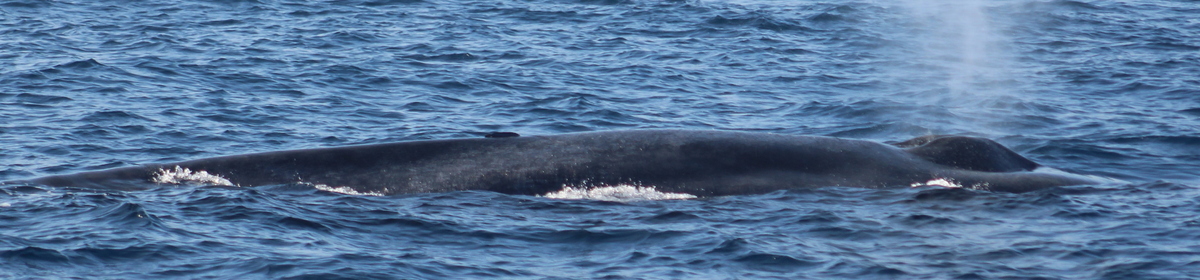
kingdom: Animalia
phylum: Chordata
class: Mammalia
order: Cetacea
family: Balaenopteridae
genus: Balaenoptera
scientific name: Balaenoptera musculus
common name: Blue whale
